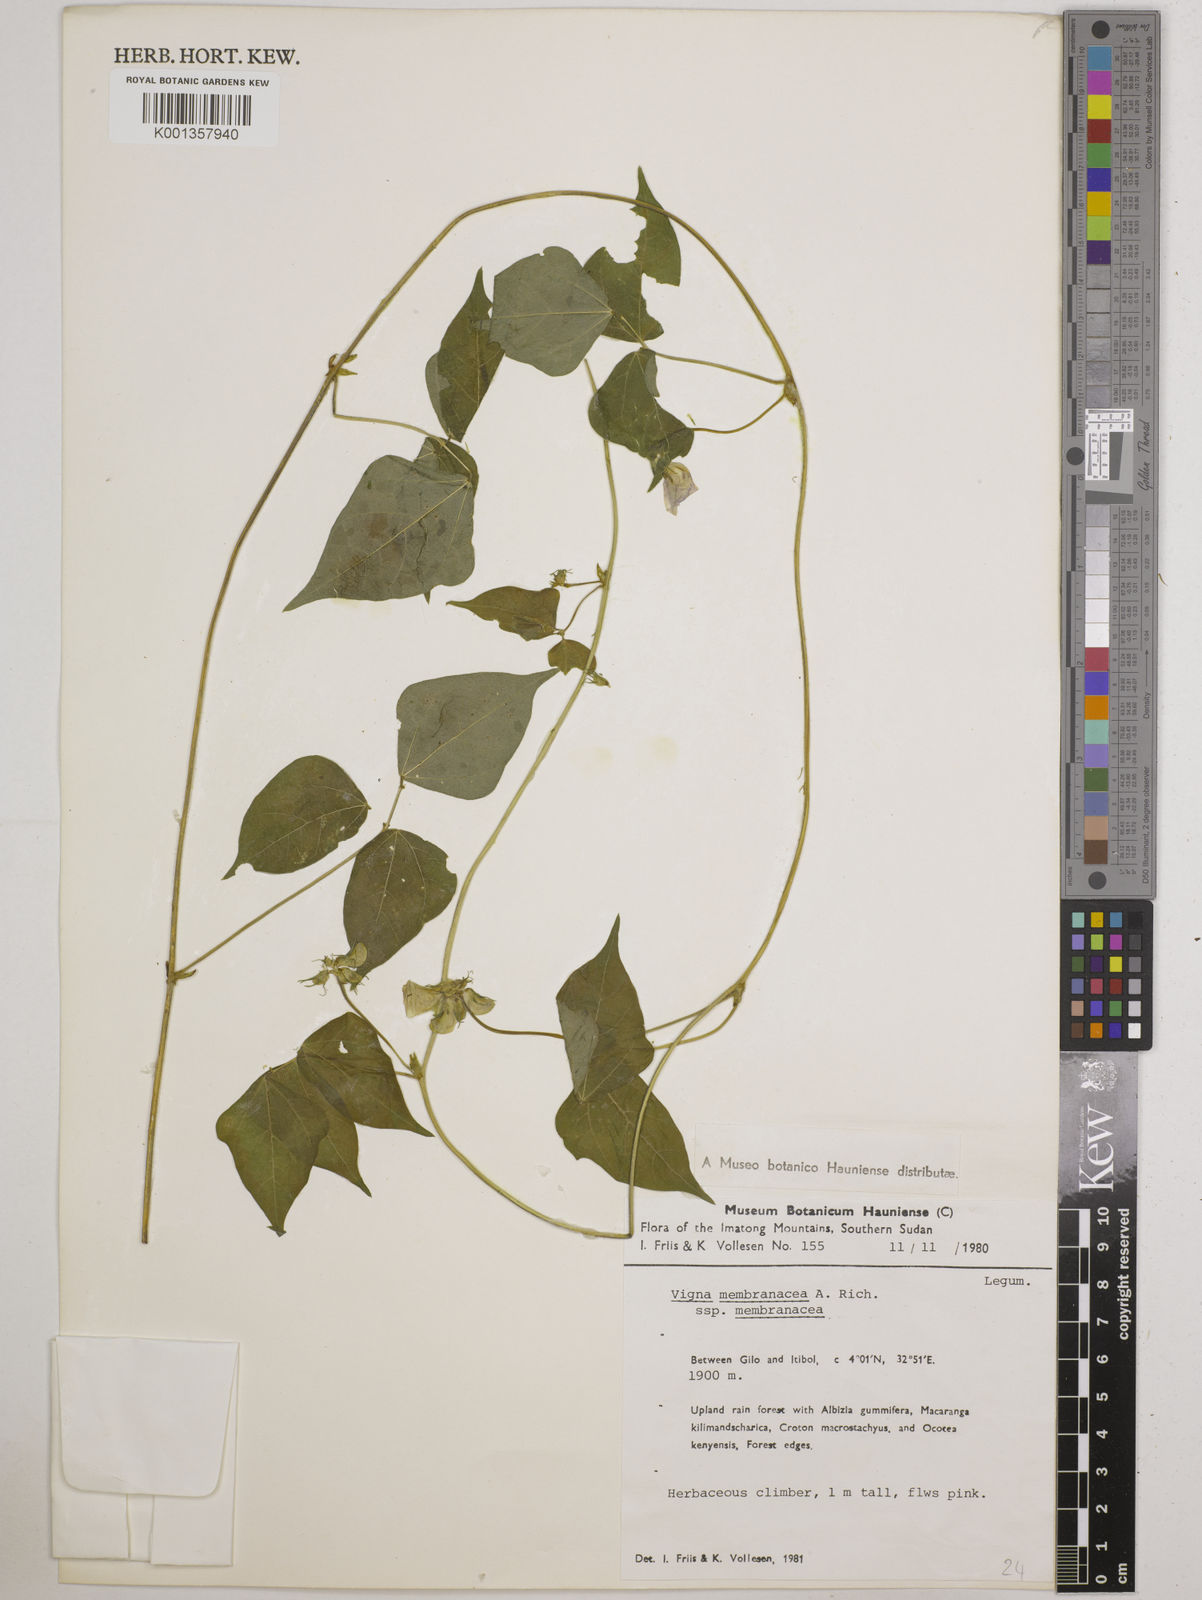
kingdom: Plantae
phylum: Tracheophyta
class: Magnoliopsida
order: Fabales
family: Fabaceae
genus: Vigna
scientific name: Vigna membranacea
